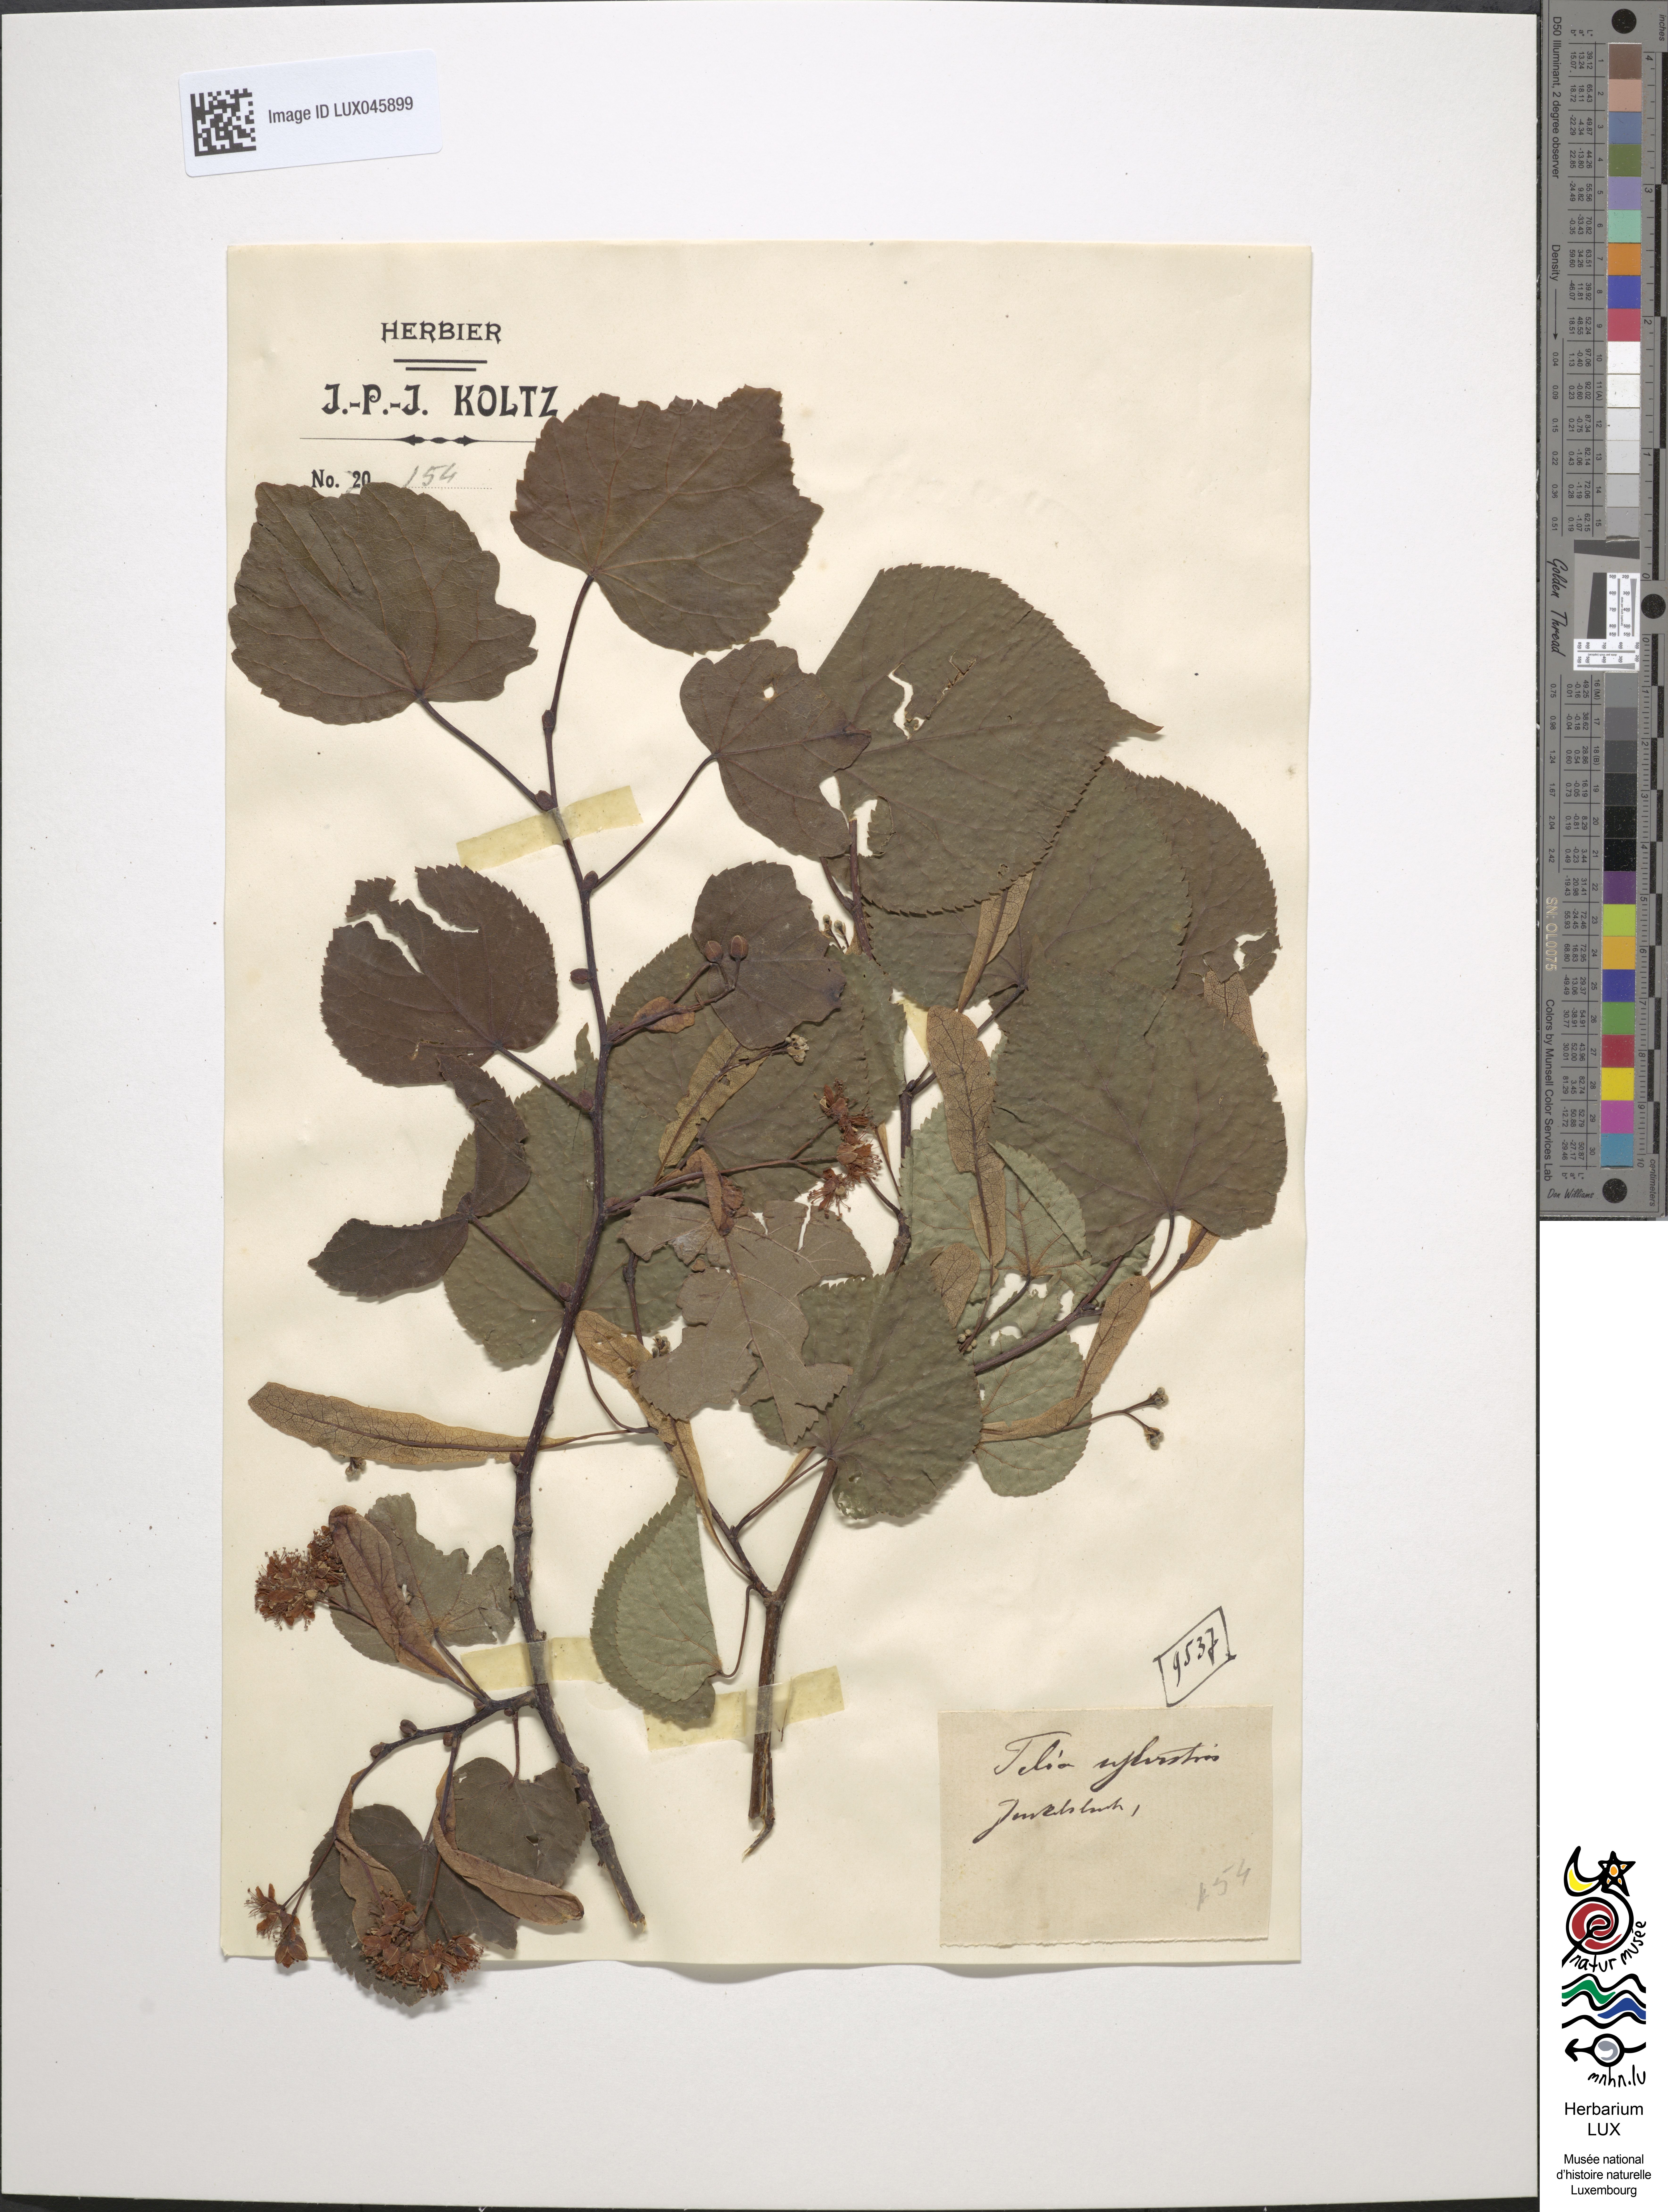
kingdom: Plantae
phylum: Tracheophyta
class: Magnoliopsida
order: Malvales
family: Malvaceae
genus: Tilia
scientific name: Tilia cordata
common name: Small-leaved lime
